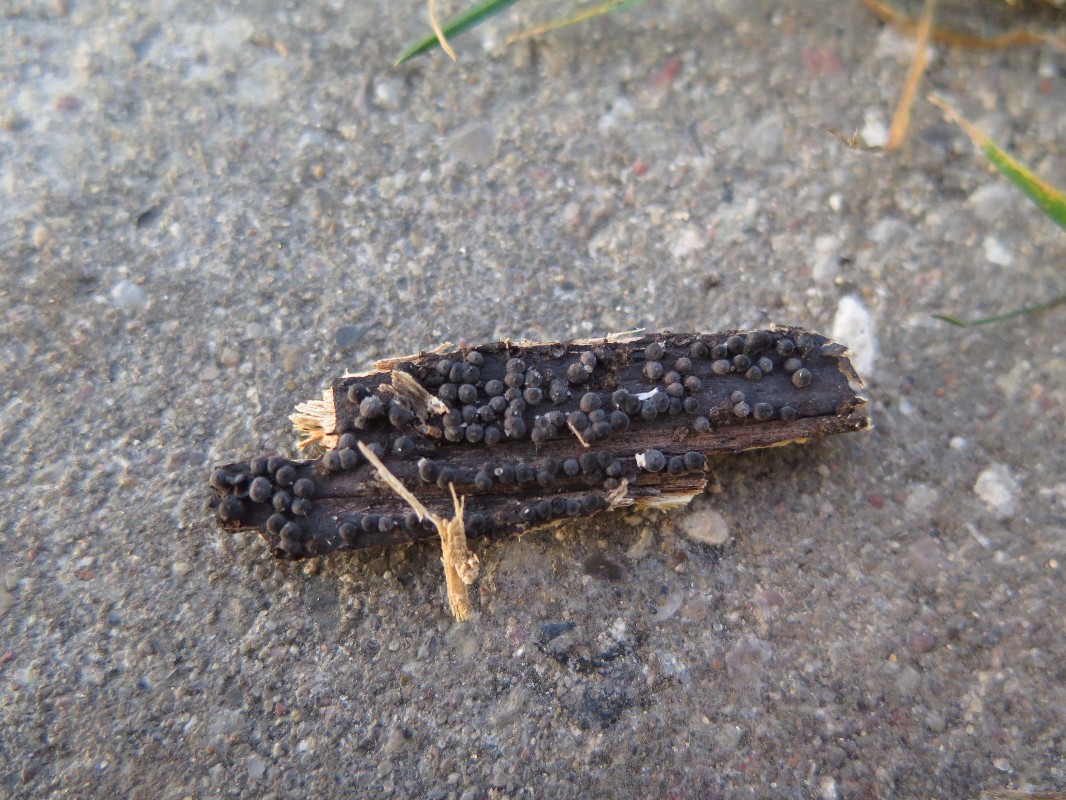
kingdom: Fungi
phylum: Ascomycota
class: Sordariomycetes
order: Xylariales
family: Xylariaceae
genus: Rosellinia
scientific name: Rosellinia aquila
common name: tykskallet kulkaviar
